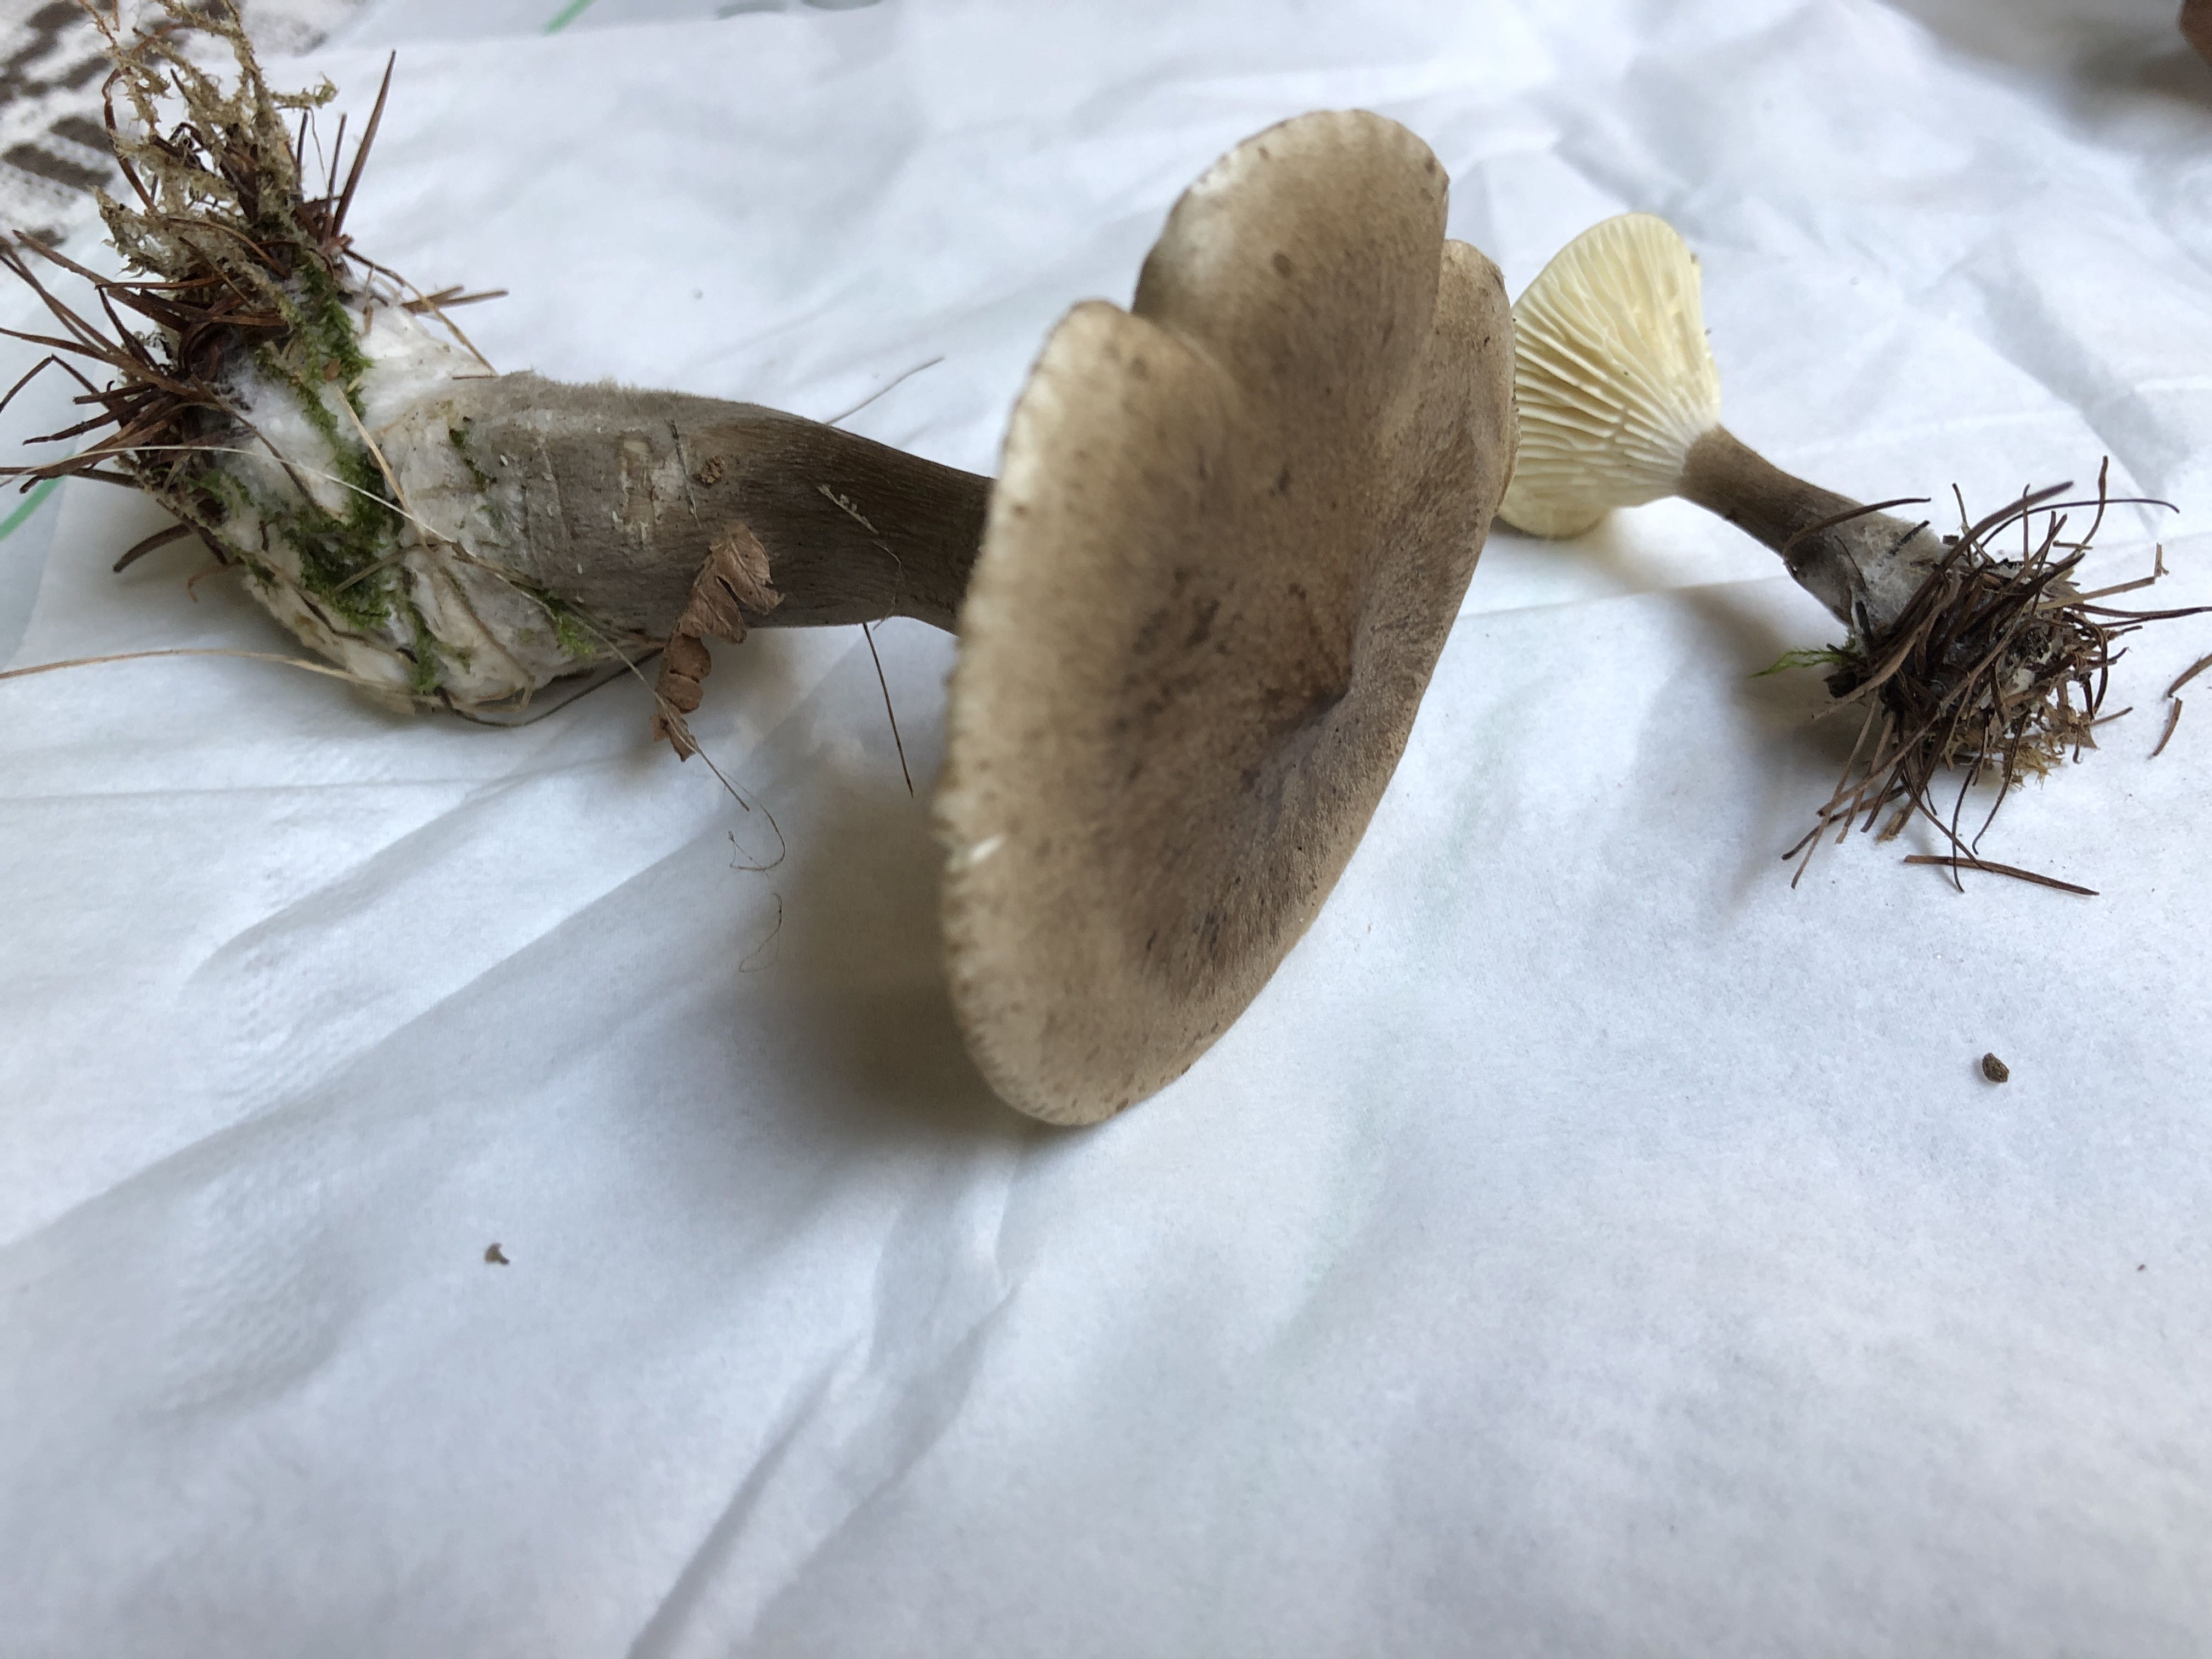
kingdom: Fungi
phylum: Basidiomycota
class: Agaricomycetes
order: Agaricales
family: Hygrophoraceae
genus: Ampulloclitocybe
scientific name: Ampulloclitocybe clavipes
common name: køllefod
